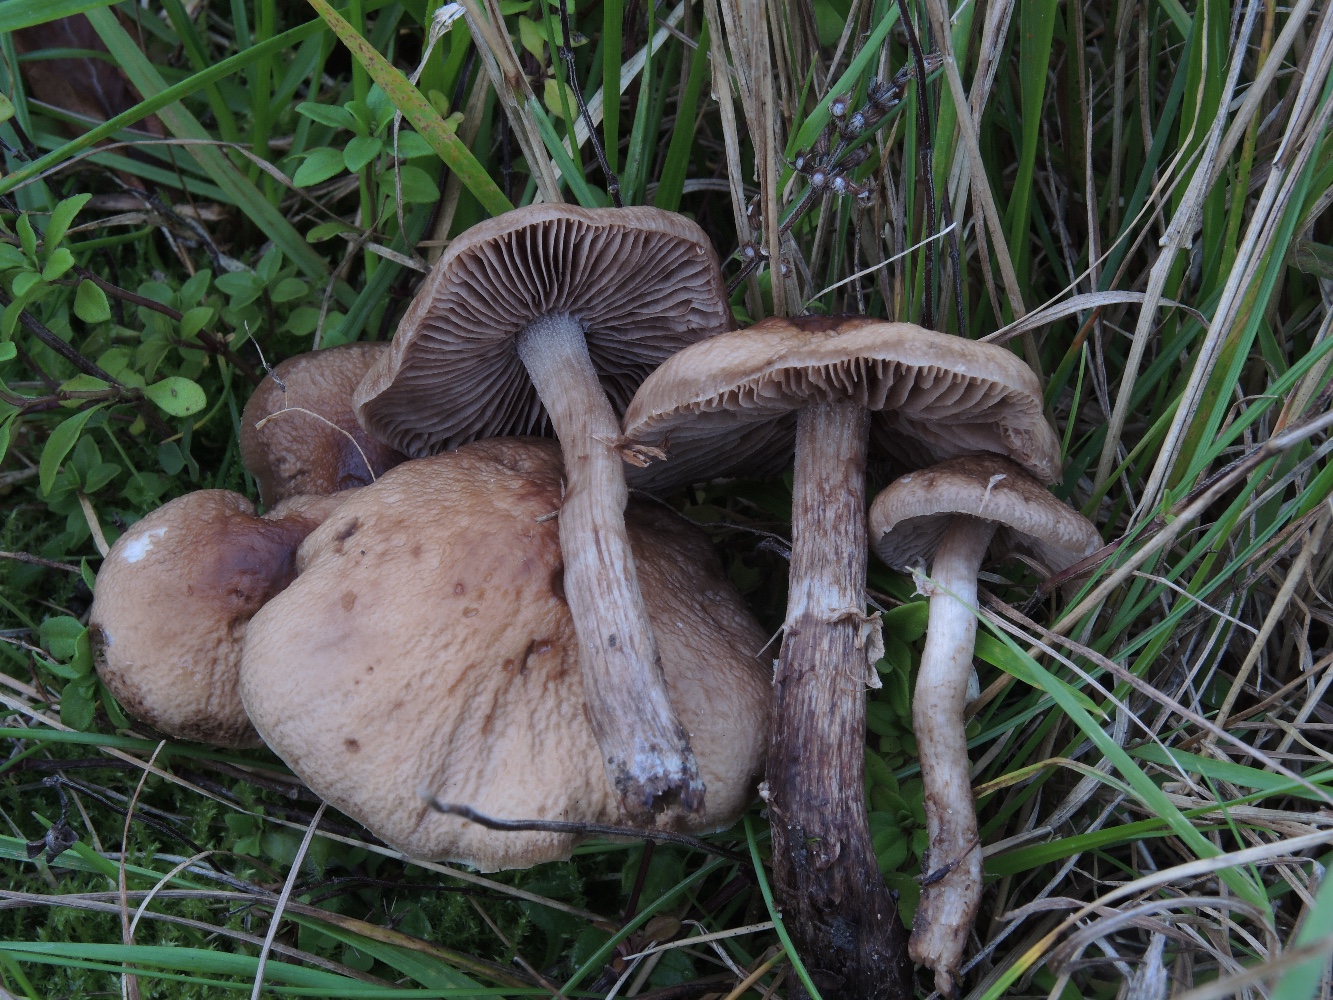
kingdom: Fungi
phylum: Basidiomycota
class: Agaricomycetes
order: Agaricales
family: Tubariaceae
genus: Cyclocybe
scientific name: Cyclocybe erebia
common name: mørk agerhat
